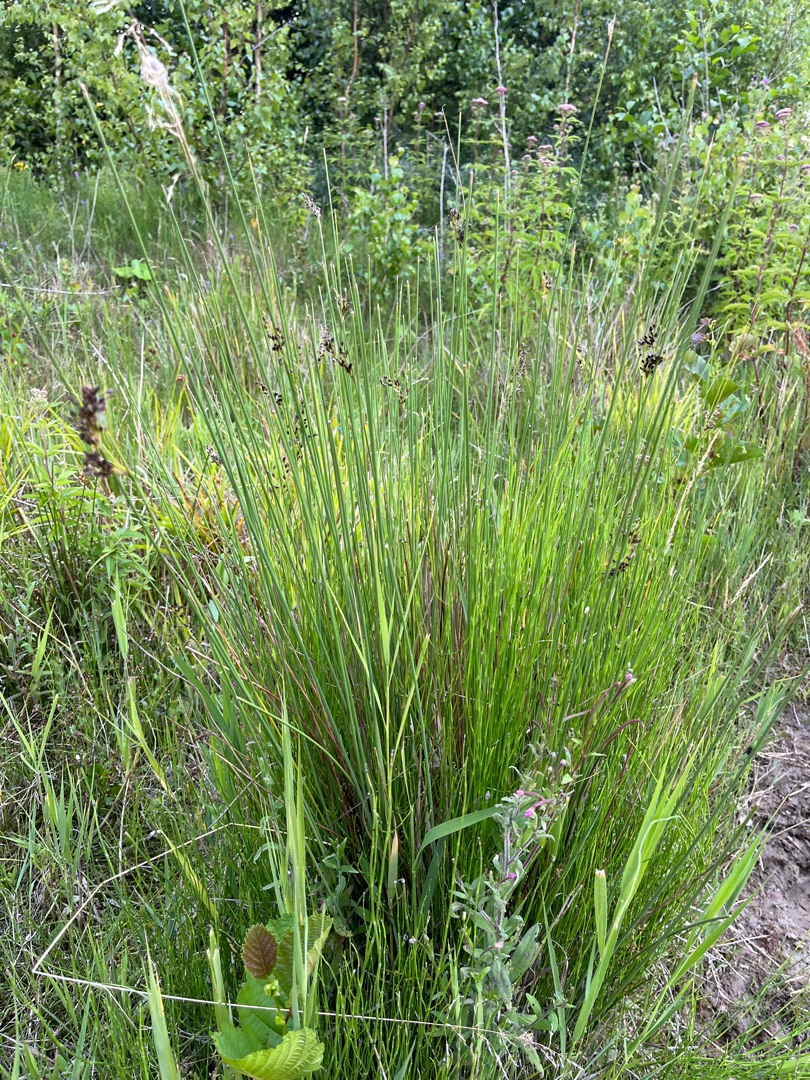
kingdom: Plantae
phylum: Tracheophyta
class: Liliopsida
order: Poales
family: Juncaceae
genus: Juncus
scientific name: Juncus inflexus
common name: Blågrå siv
